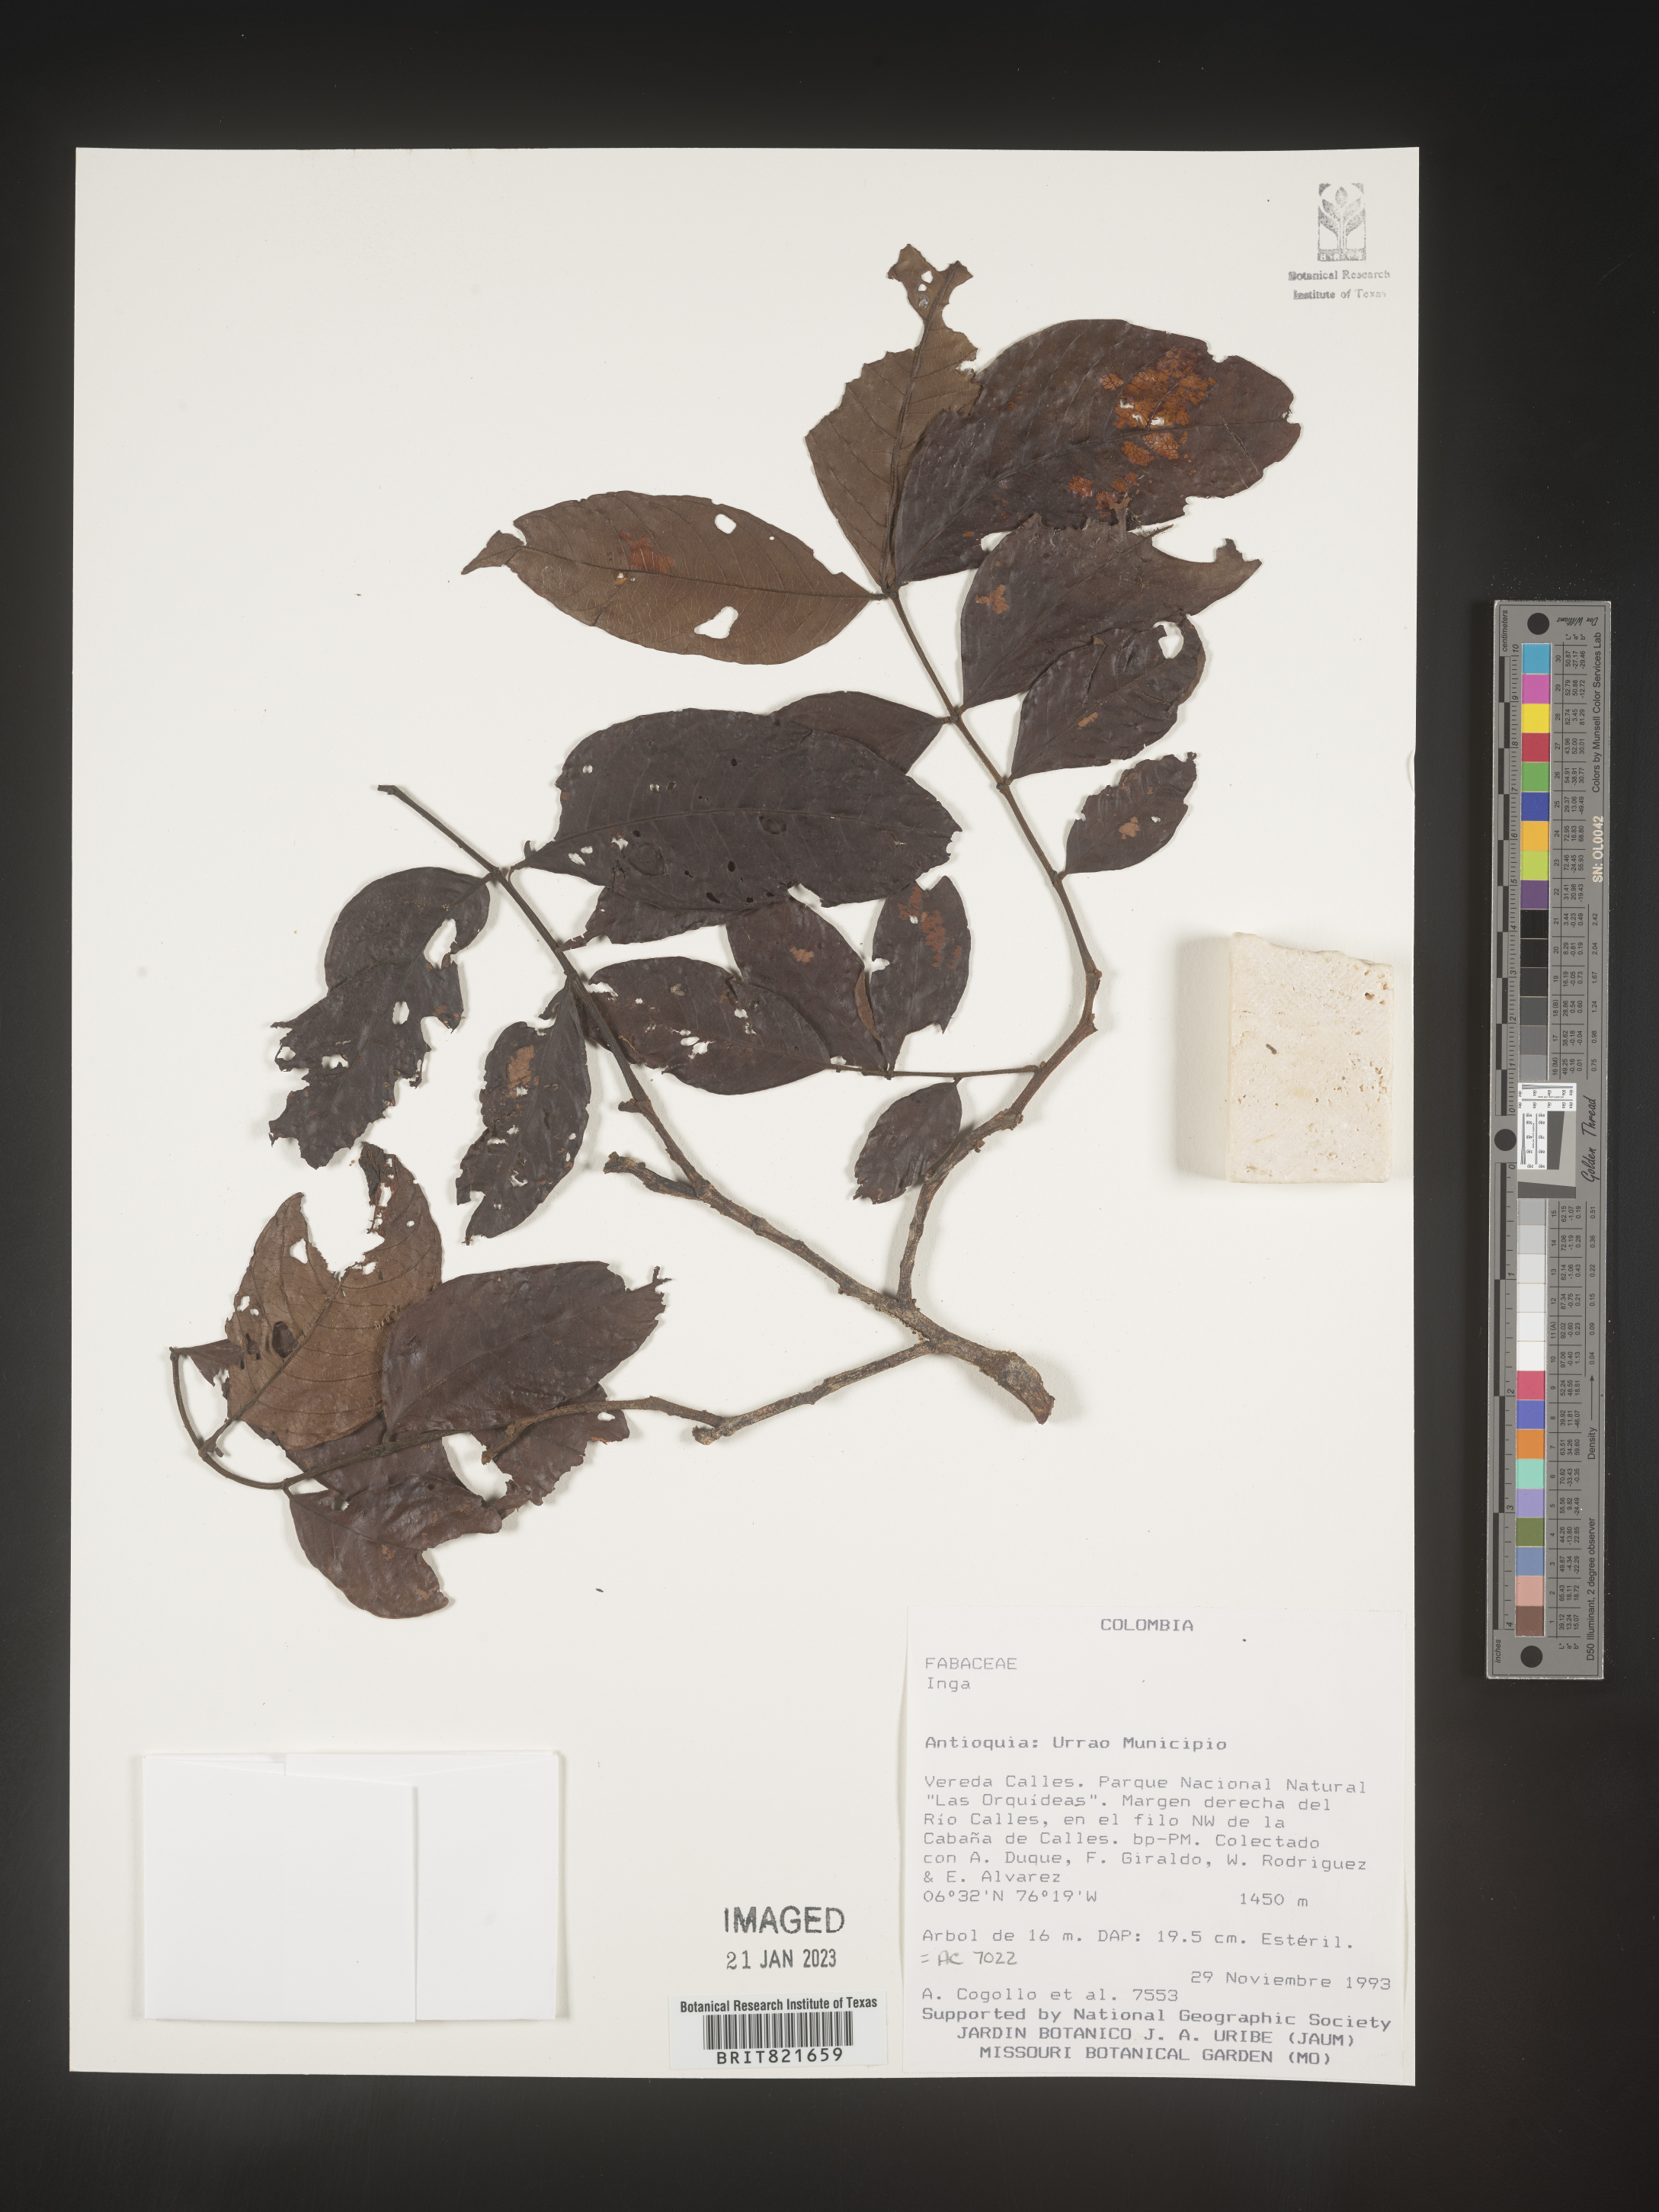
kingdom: Plantae
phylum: Tracheophyta
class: Magnoliopsida
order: Fabales
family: Fabaceae
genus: Inga
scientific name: Inga
